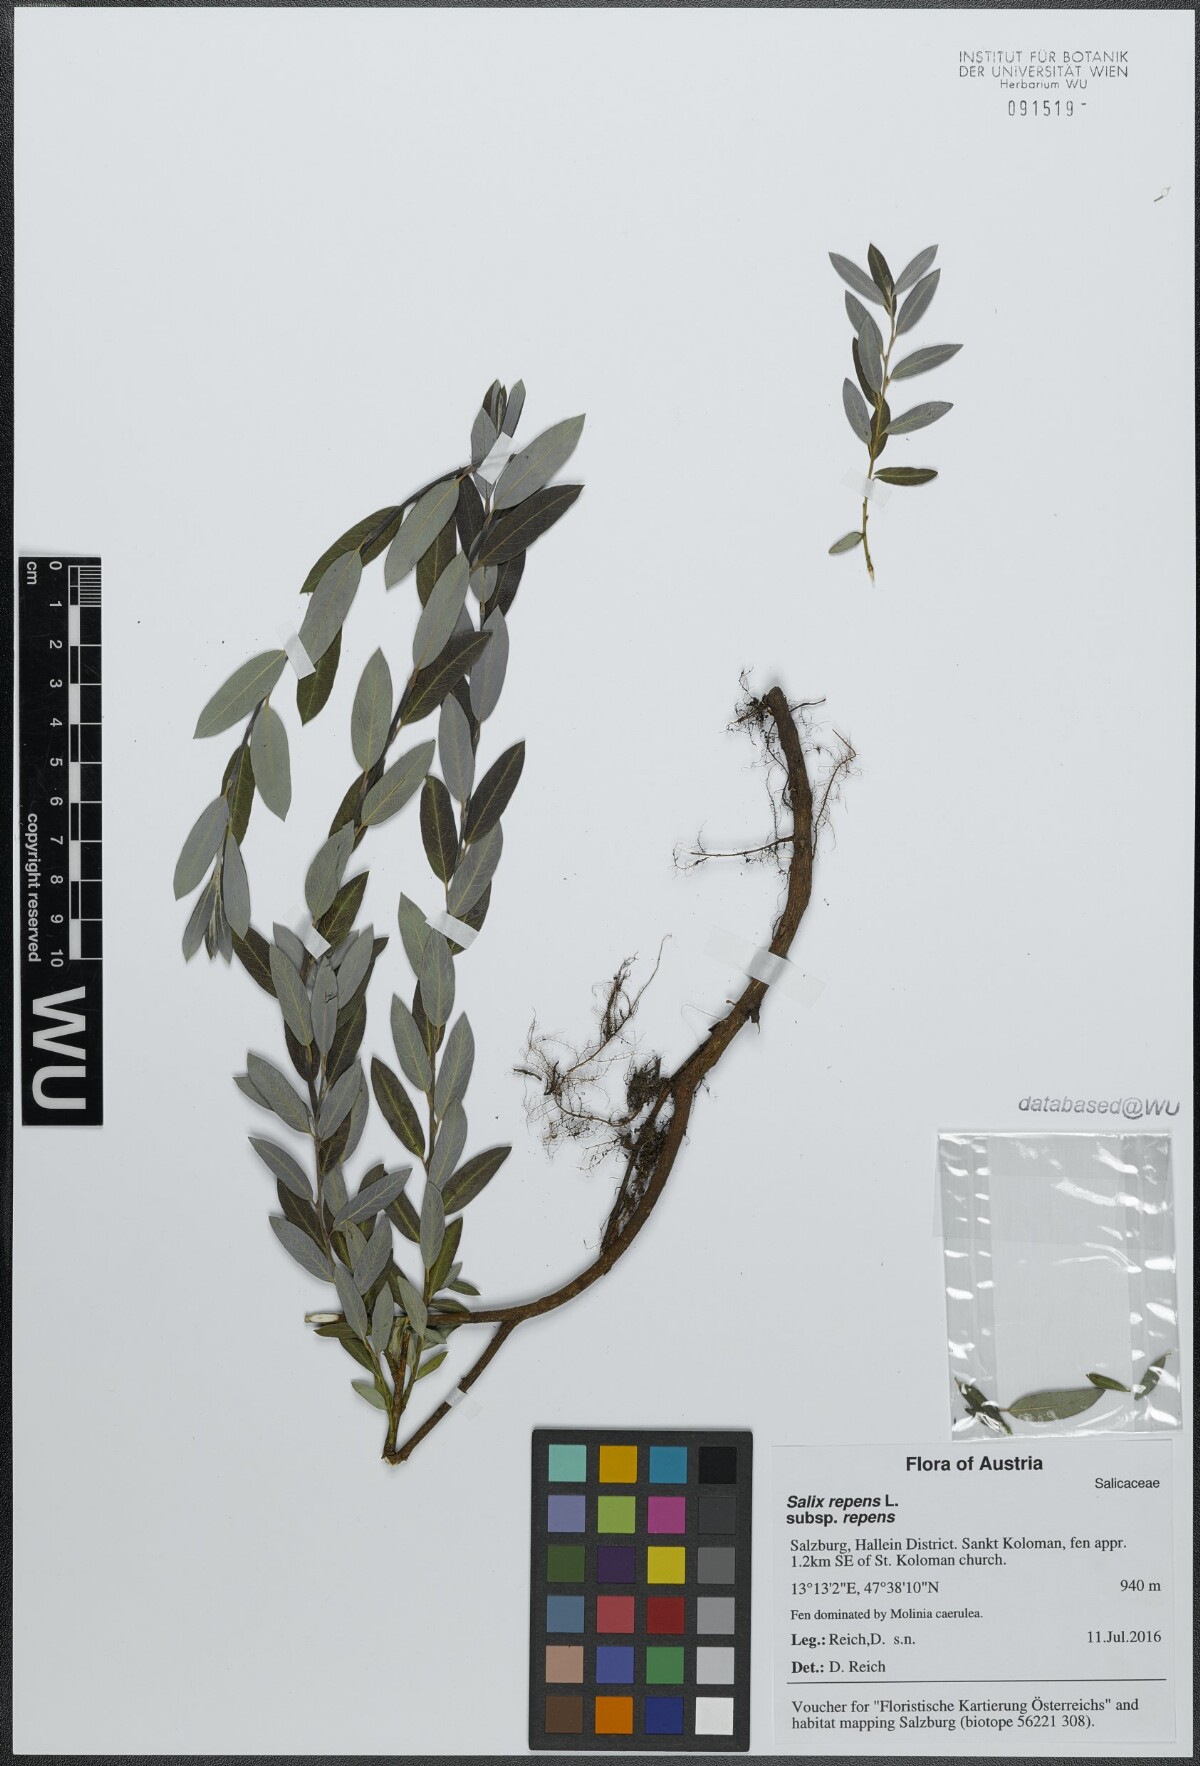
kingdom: Plantae
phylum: Tracheophyta
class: Magnoliopsida
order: Malpighiales
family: Salicaceae
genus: Salix
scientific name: Salix repens
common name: Creeping willow
